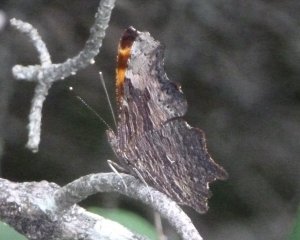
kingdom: Animalia
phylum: Arthropoda
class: Insecta
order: Lepidoptera
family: Nymphalidae
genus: Polygonia
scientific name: Polygonia progne
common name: Gray Comma
